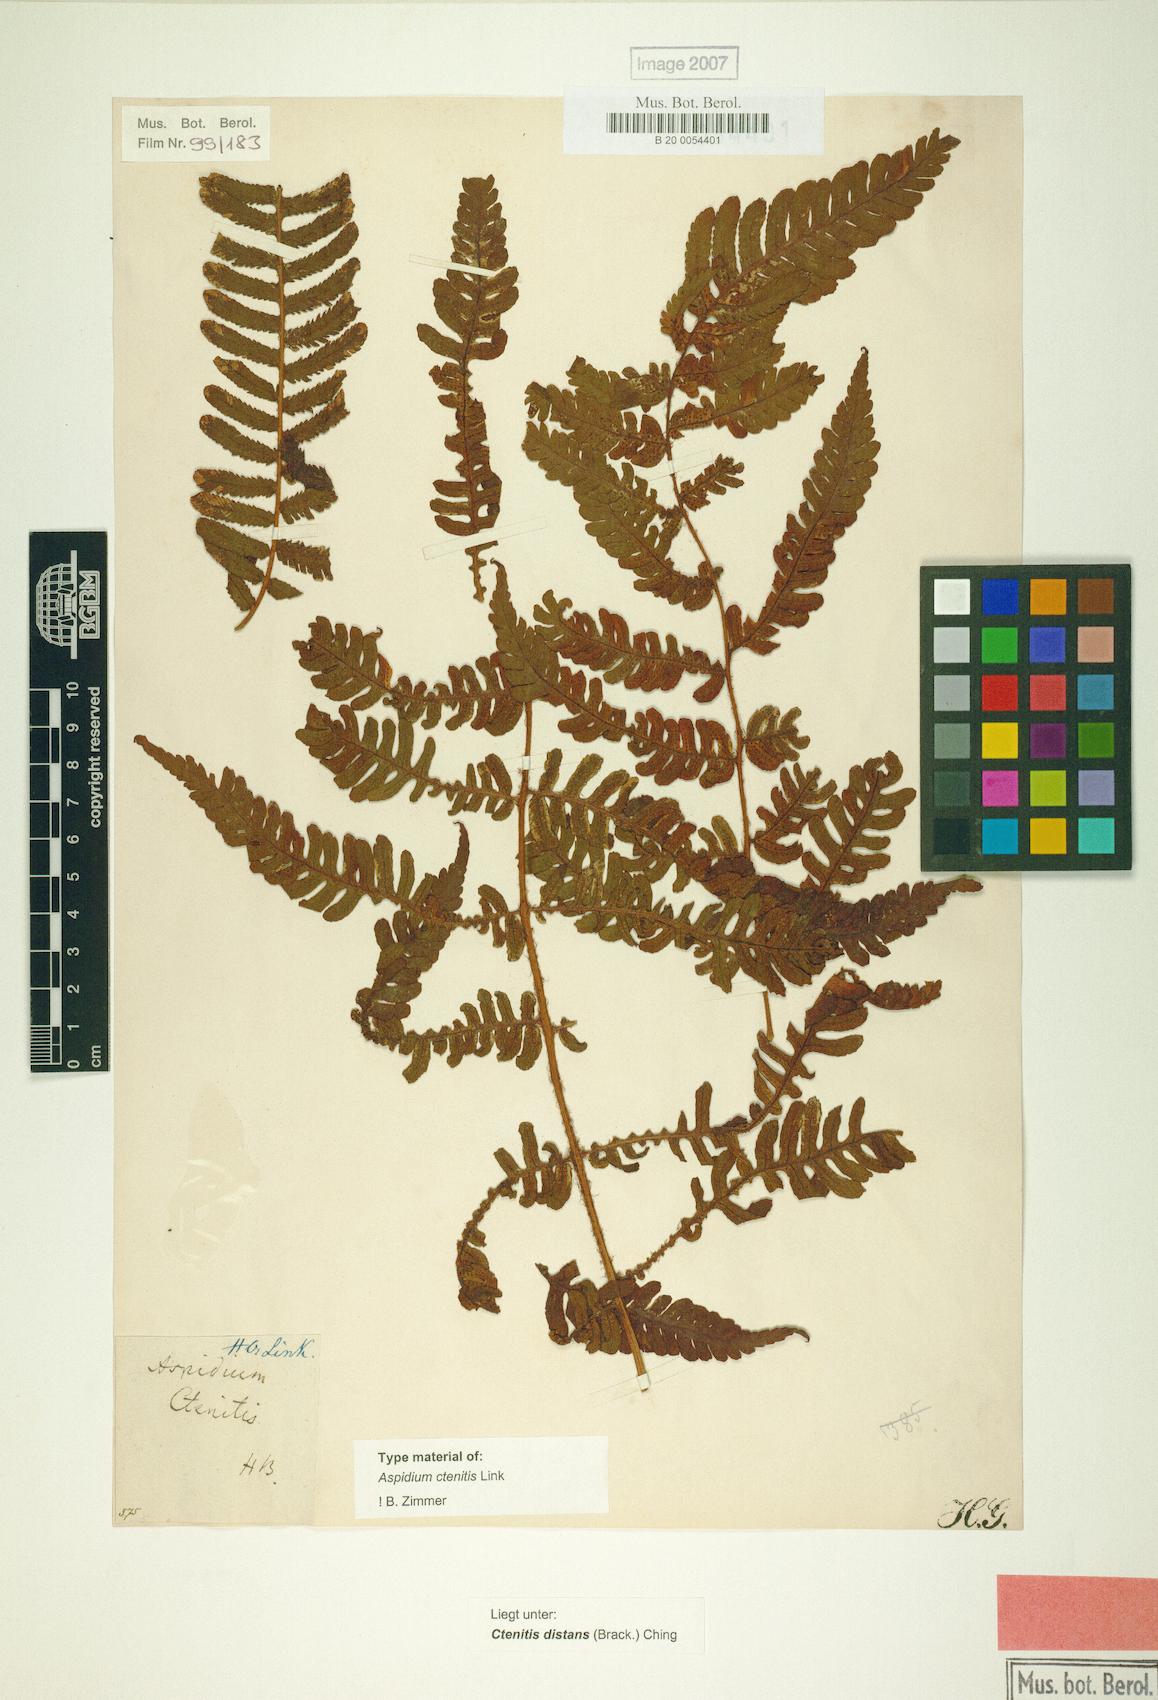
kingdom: Plantae
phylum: Tracheophyta
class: Polypodiopsida
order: Polypodiales
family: Dryopteridaceae
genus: Ctenitis
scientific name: Ctenitis distans
